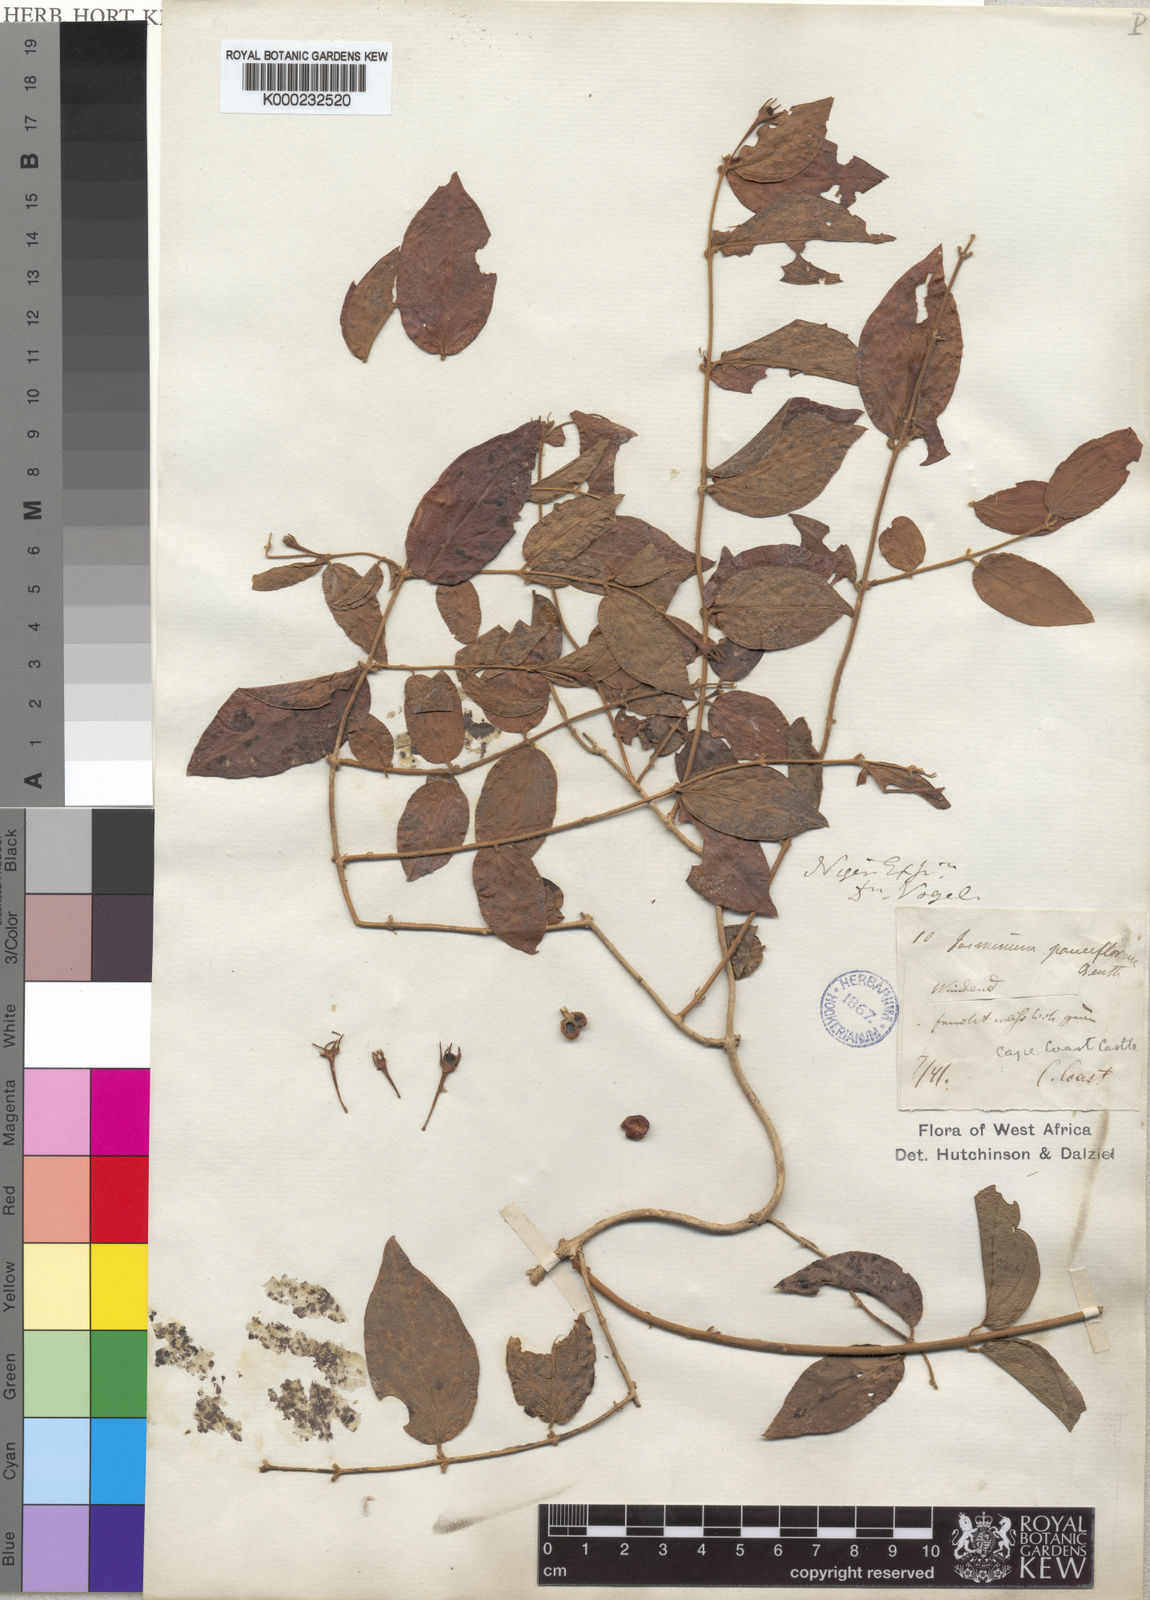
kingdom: Plantae
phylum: Tracheophyta
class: Magnoliopsida
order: Lamiales
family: Oleaceae
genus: Jasminum
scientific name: Jasminum pauciflorum
